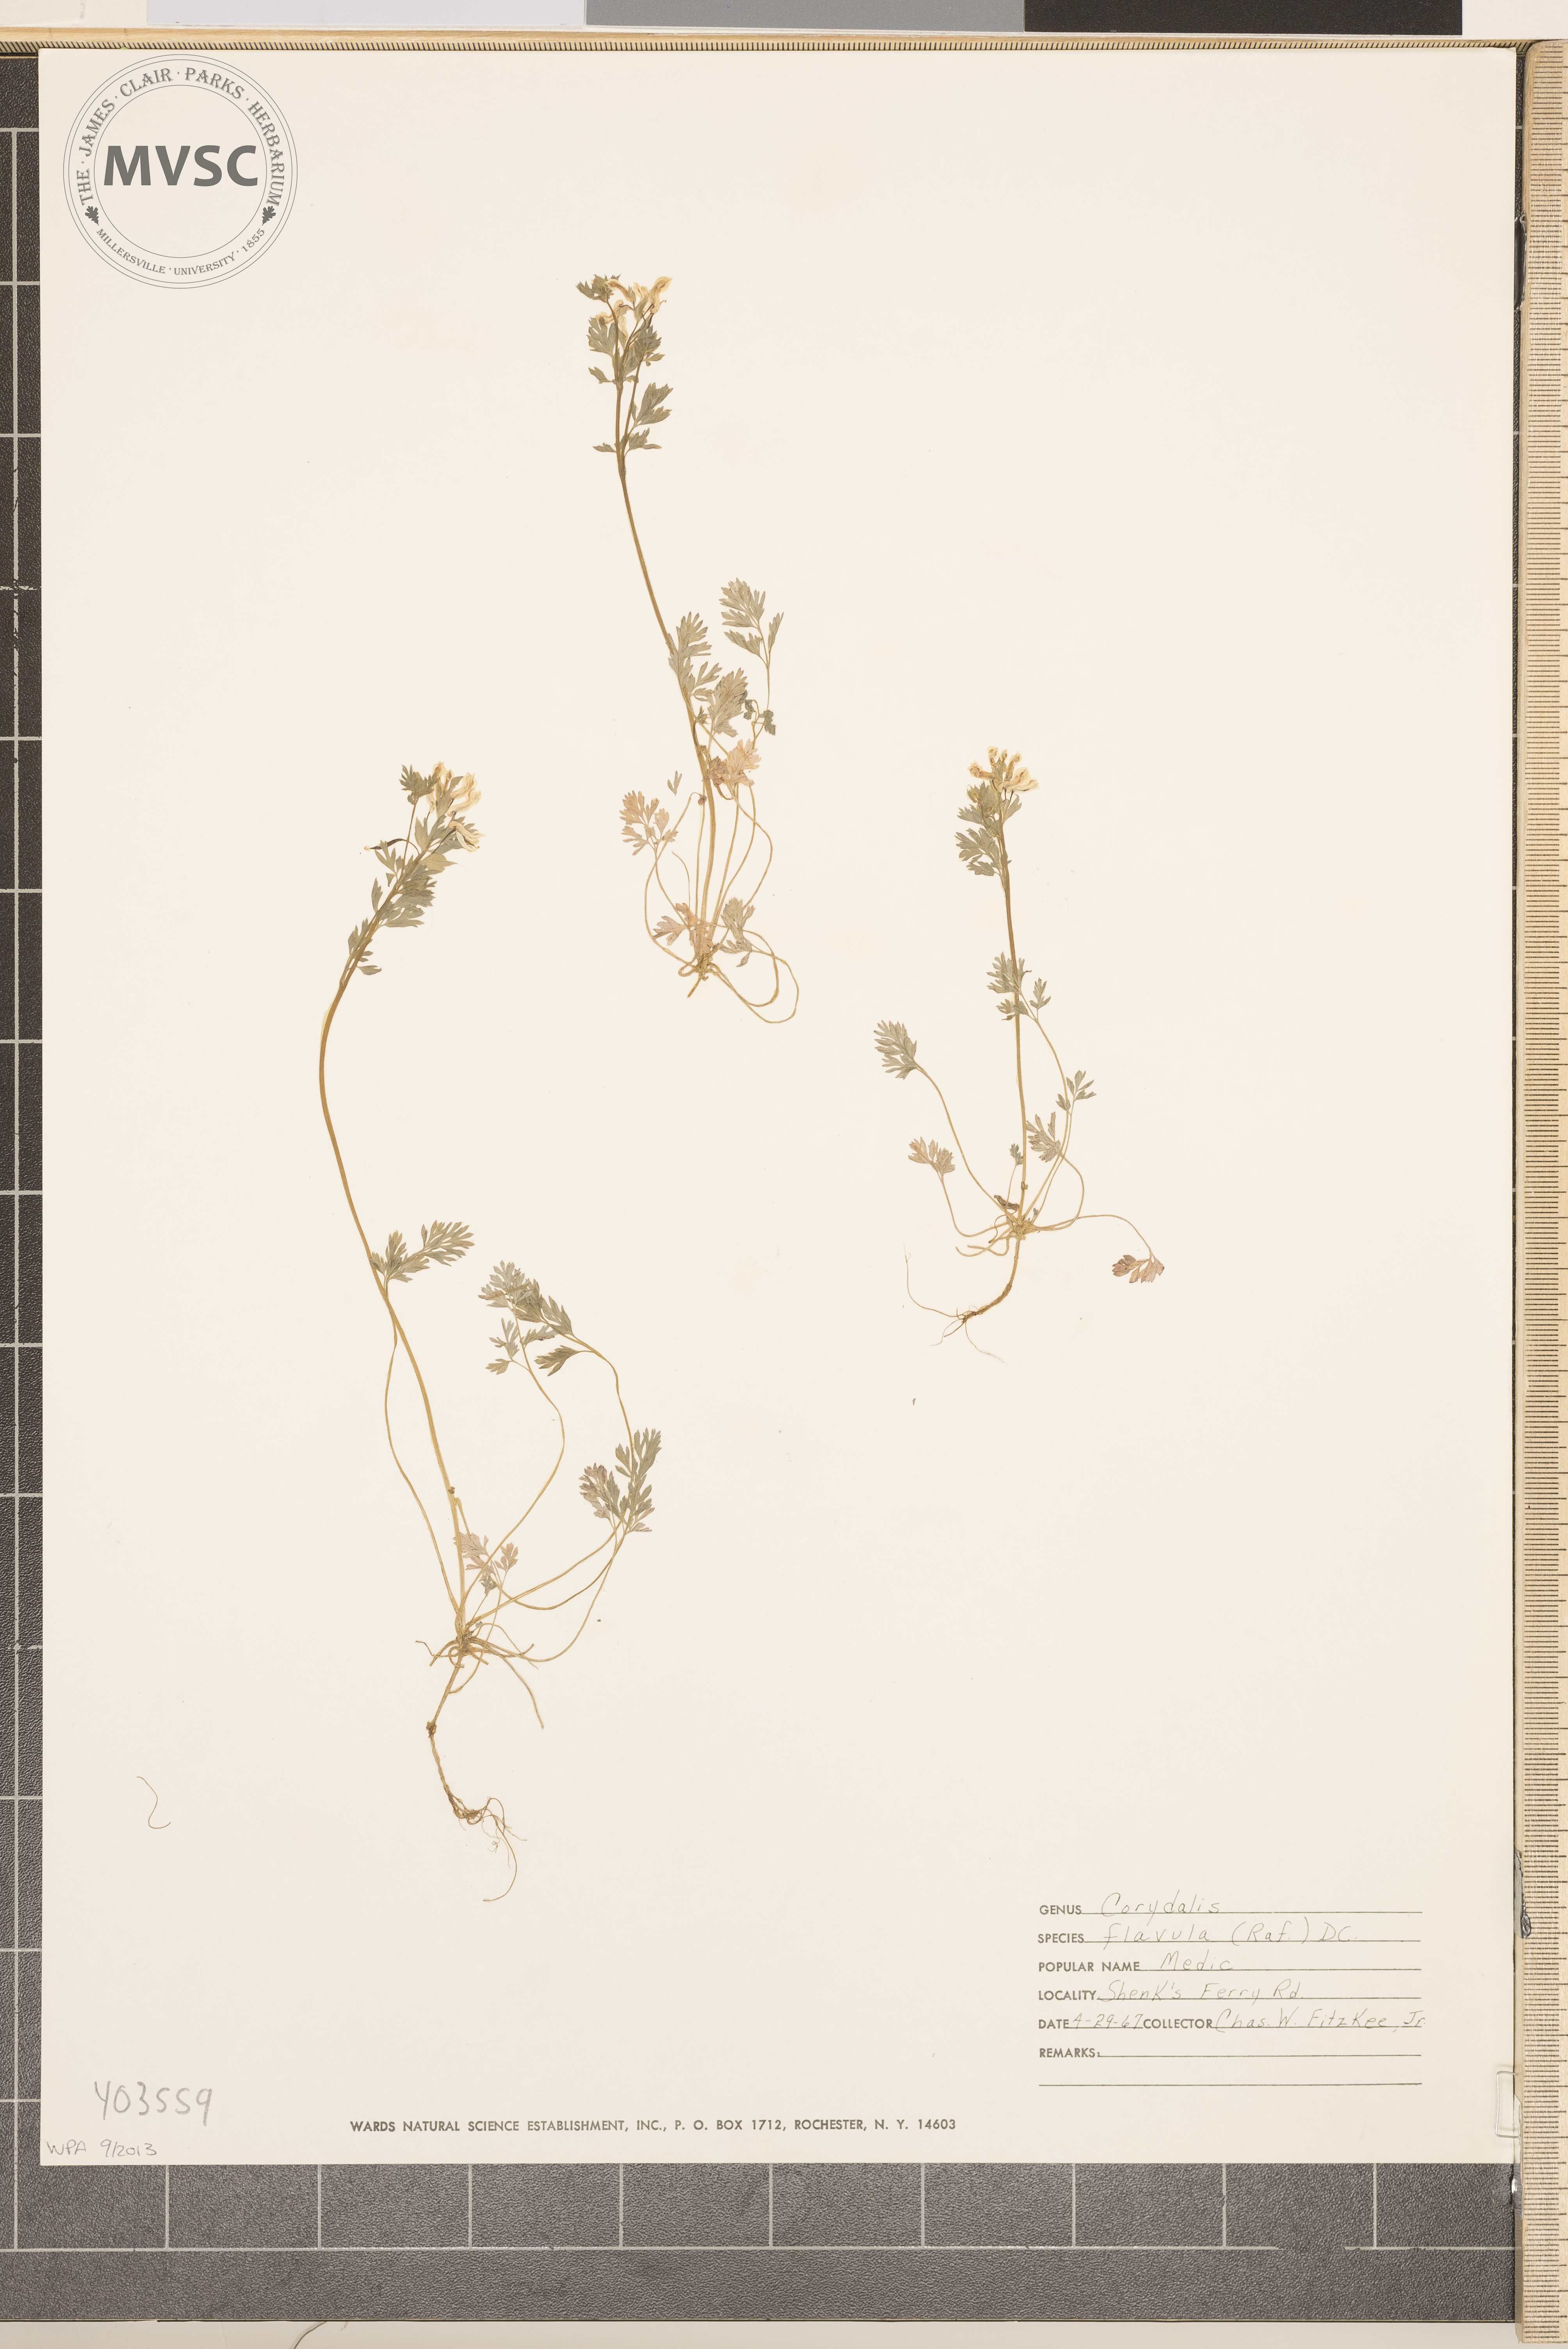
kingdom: Plantae
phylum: Tracheophyta
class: Magnoliopsida
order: Ranunculales
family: Papaveraceae
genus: Corydalis
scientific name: Corydalis flavula
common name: Yellow corydalis
